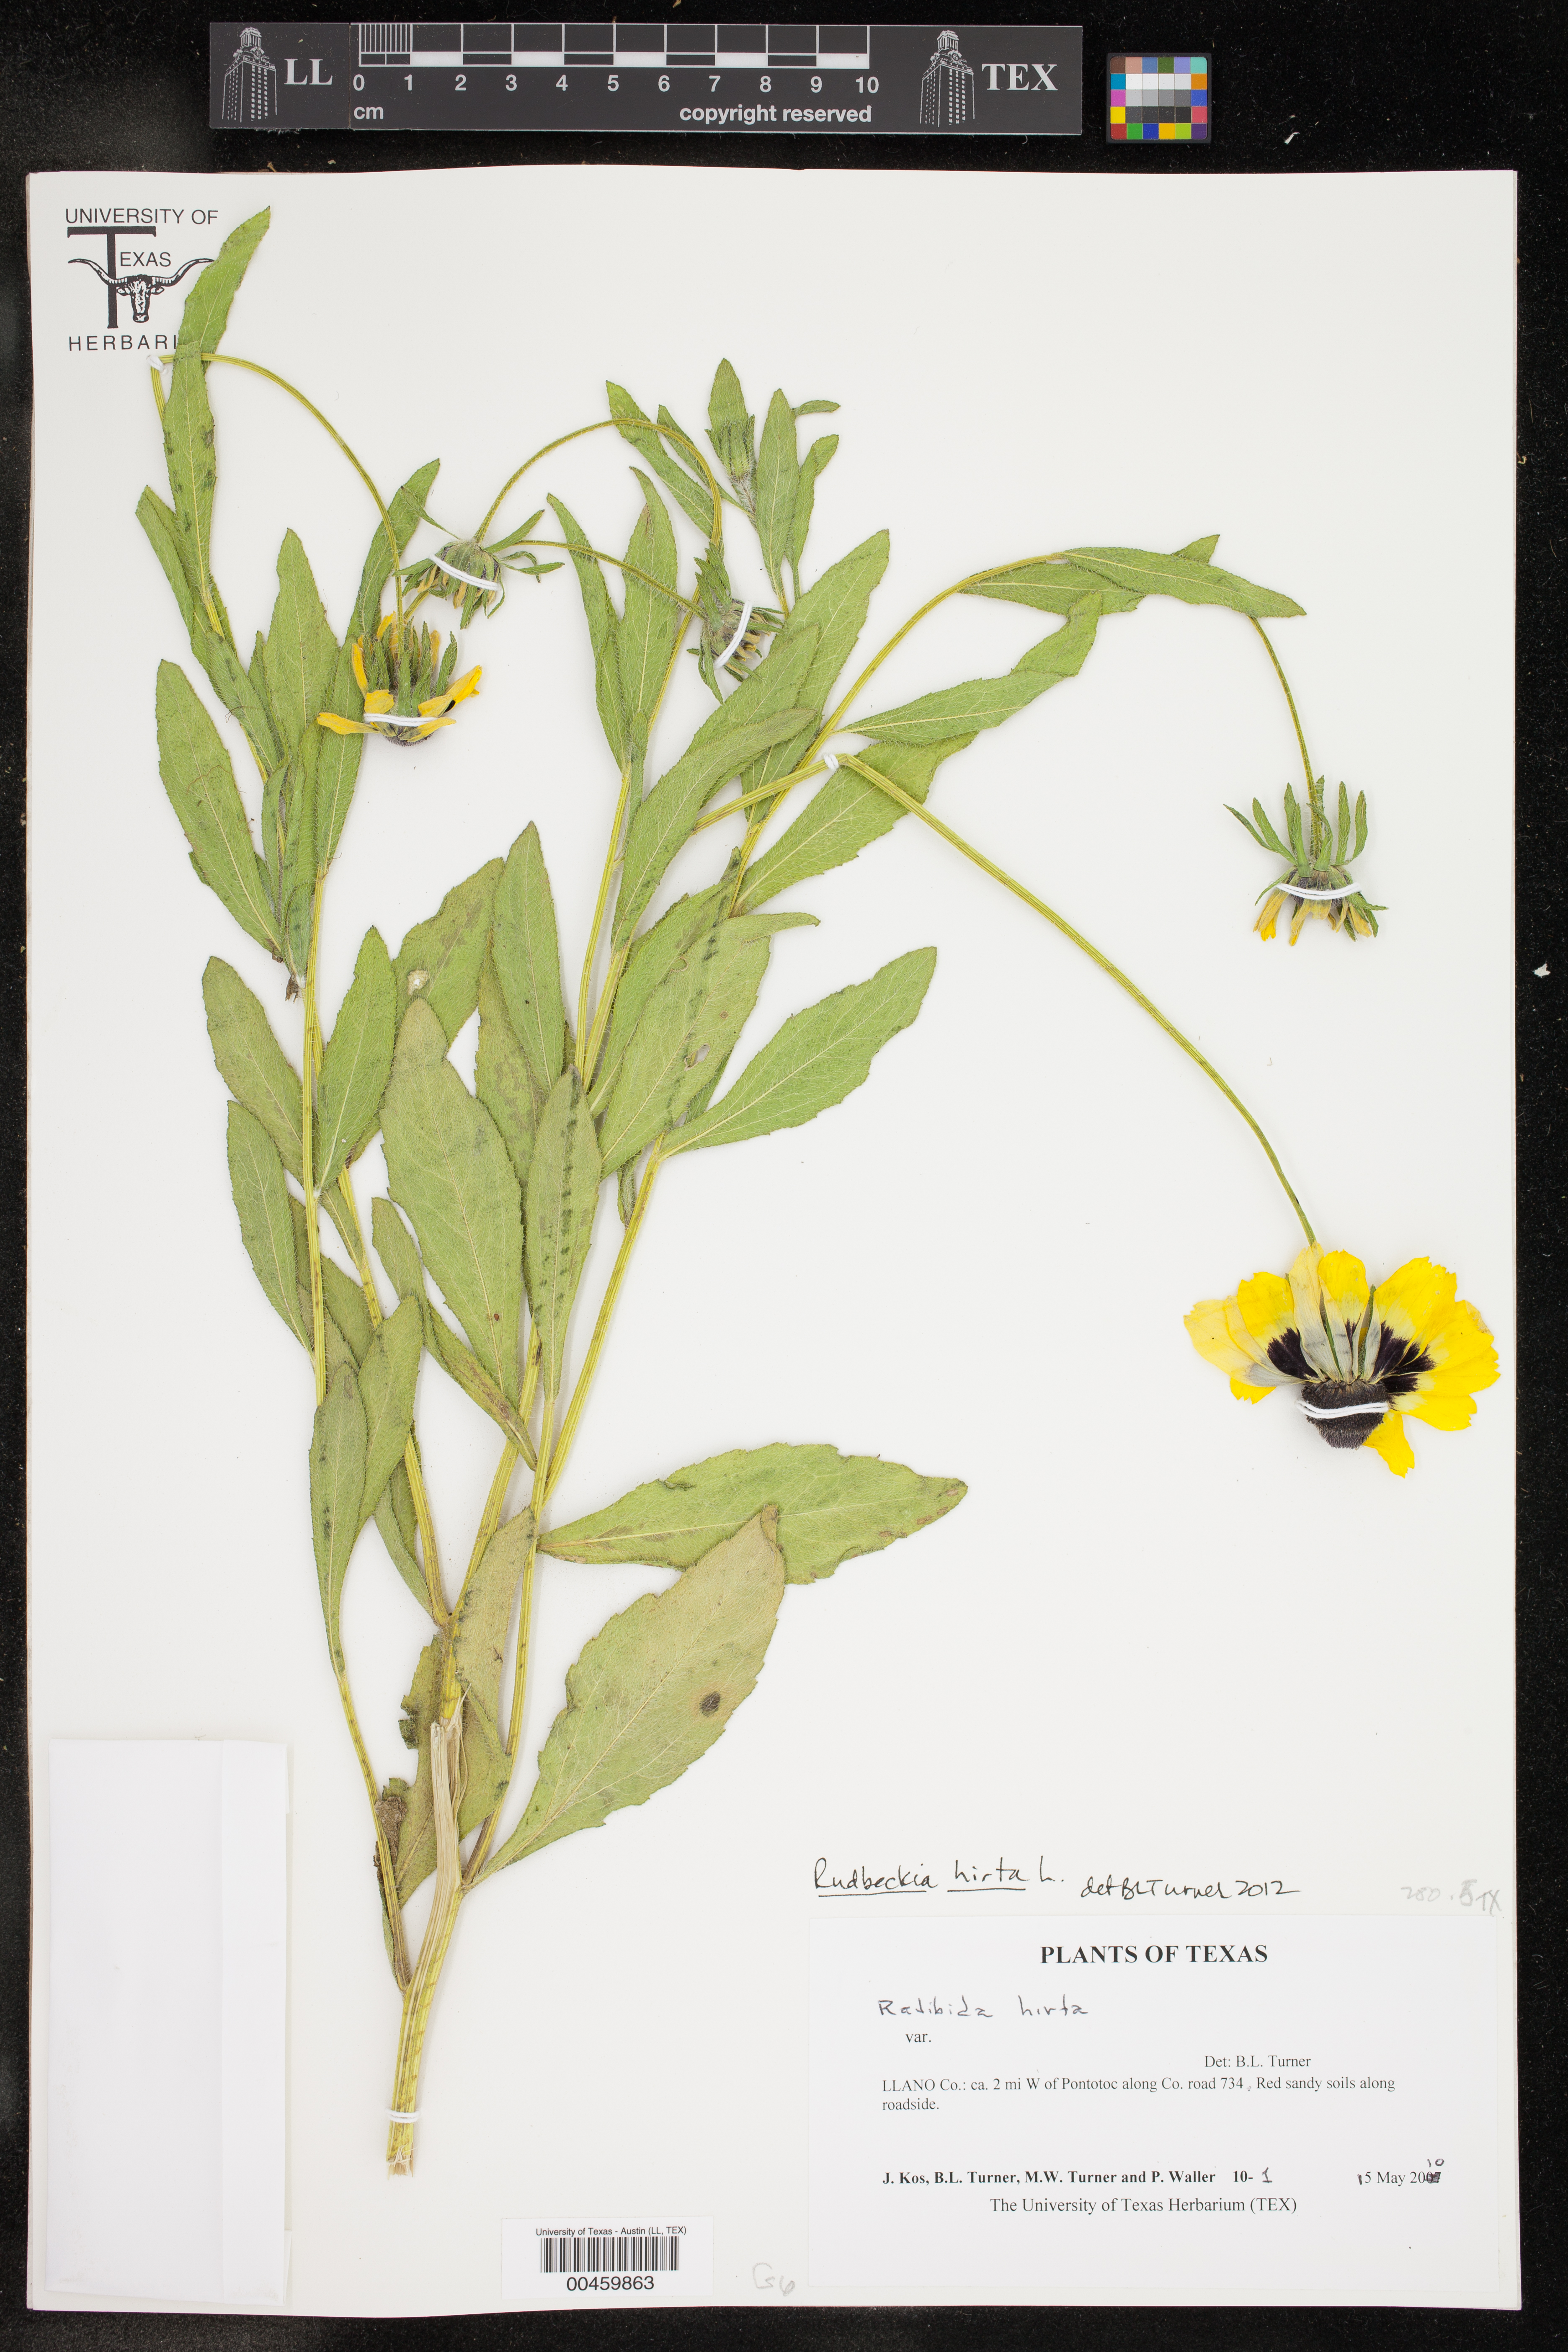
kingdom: Plantae
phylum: Tracheophyta
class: Magnoliopsida
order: Asterales
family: Asteraceae
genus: Rudbeckia
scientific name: Rudbeckia hirta
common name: Black-eyed-susan
